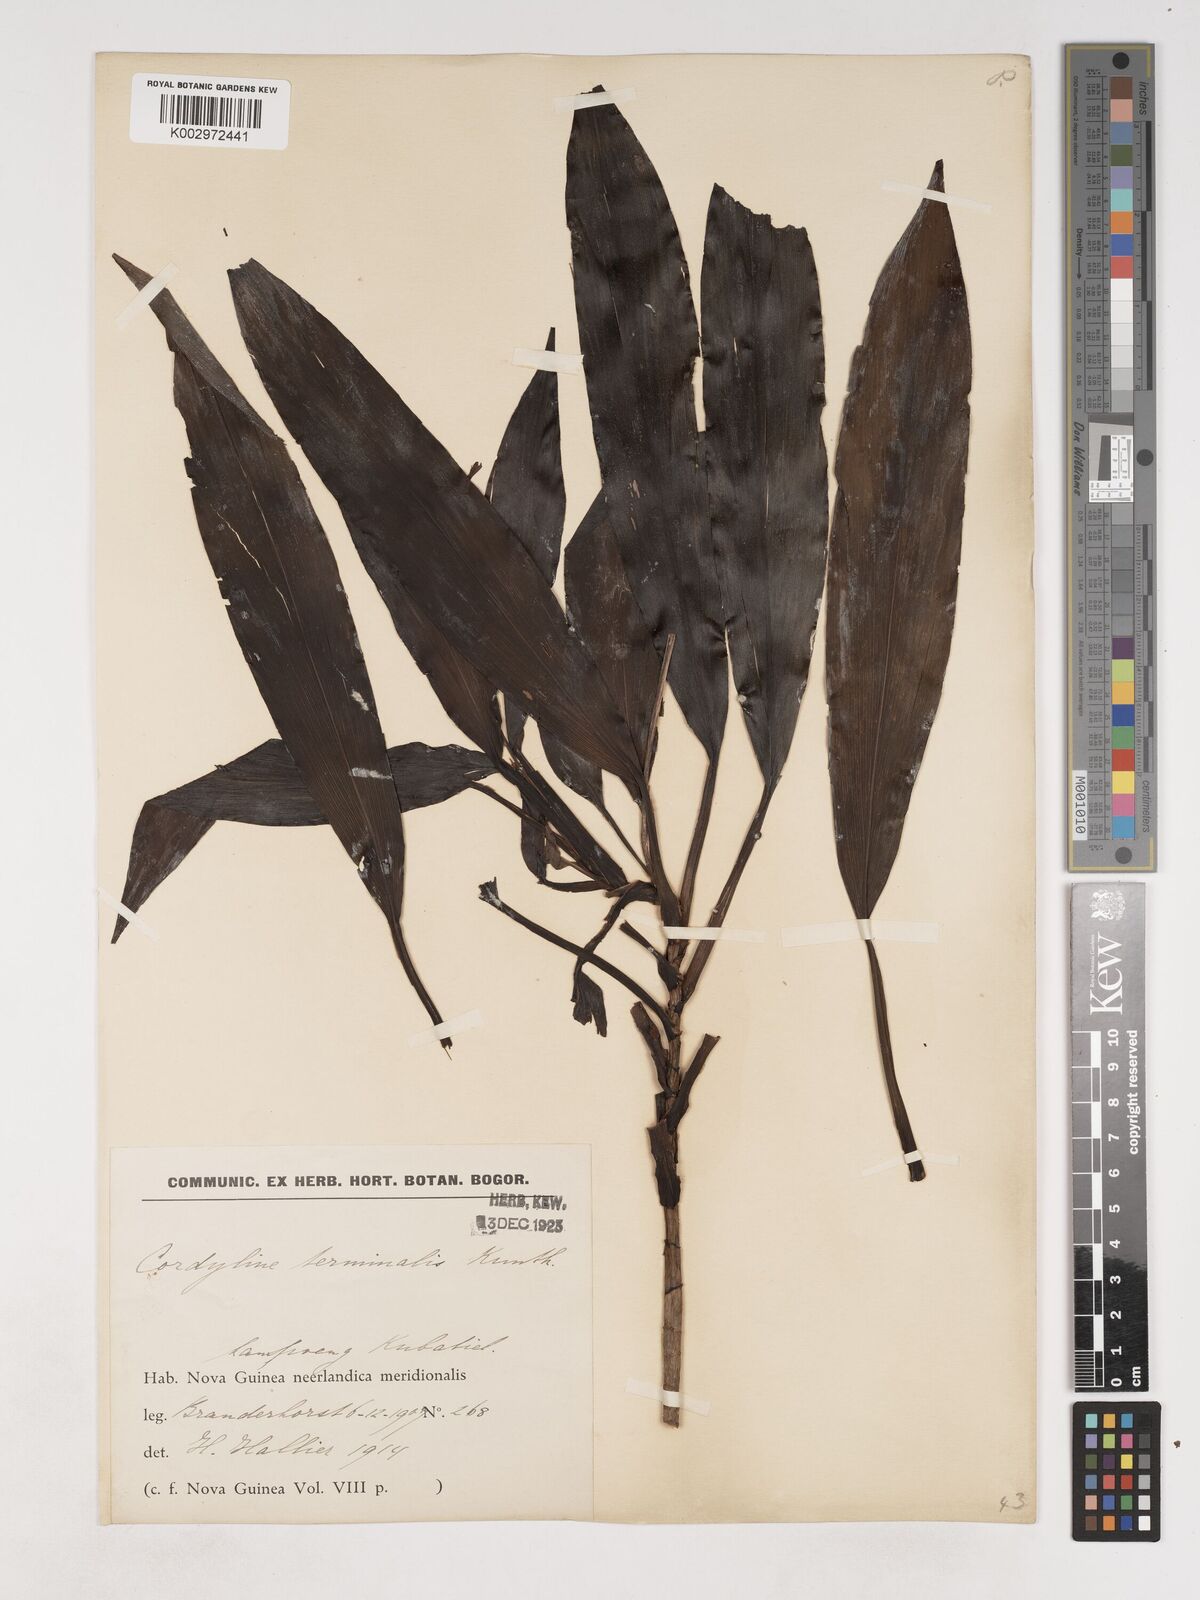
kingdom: Plantae
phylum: Tracheophyta
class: Liliopsida
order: Asparagales
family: Asparagaceae
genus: Cordyline
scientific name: Cordyline fruticosa
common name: Good-luck-plant
